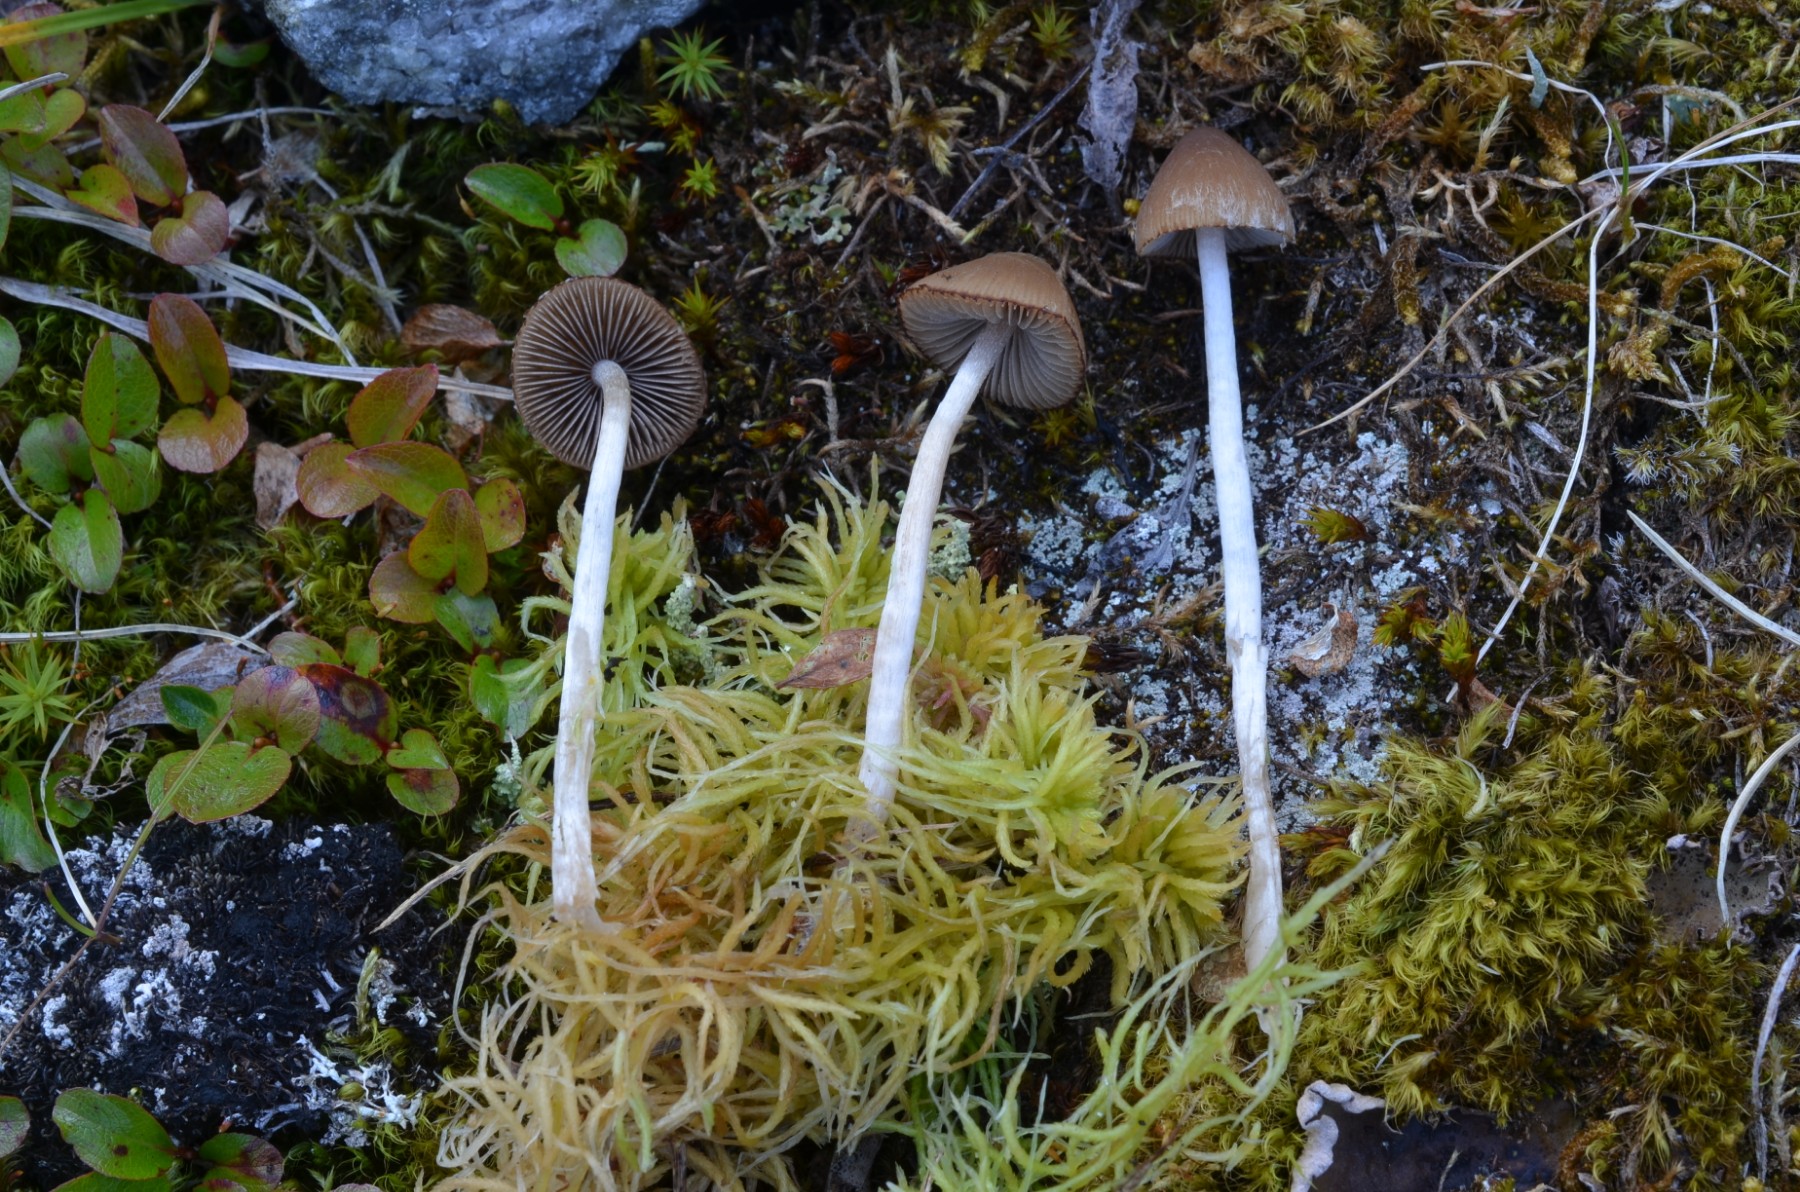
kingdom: Fungi
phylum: Basidiomycota
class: Agaricomycetes
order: Agaricales
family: Psathyrellaceae
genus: Psathyrella
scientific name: Psathyrella
